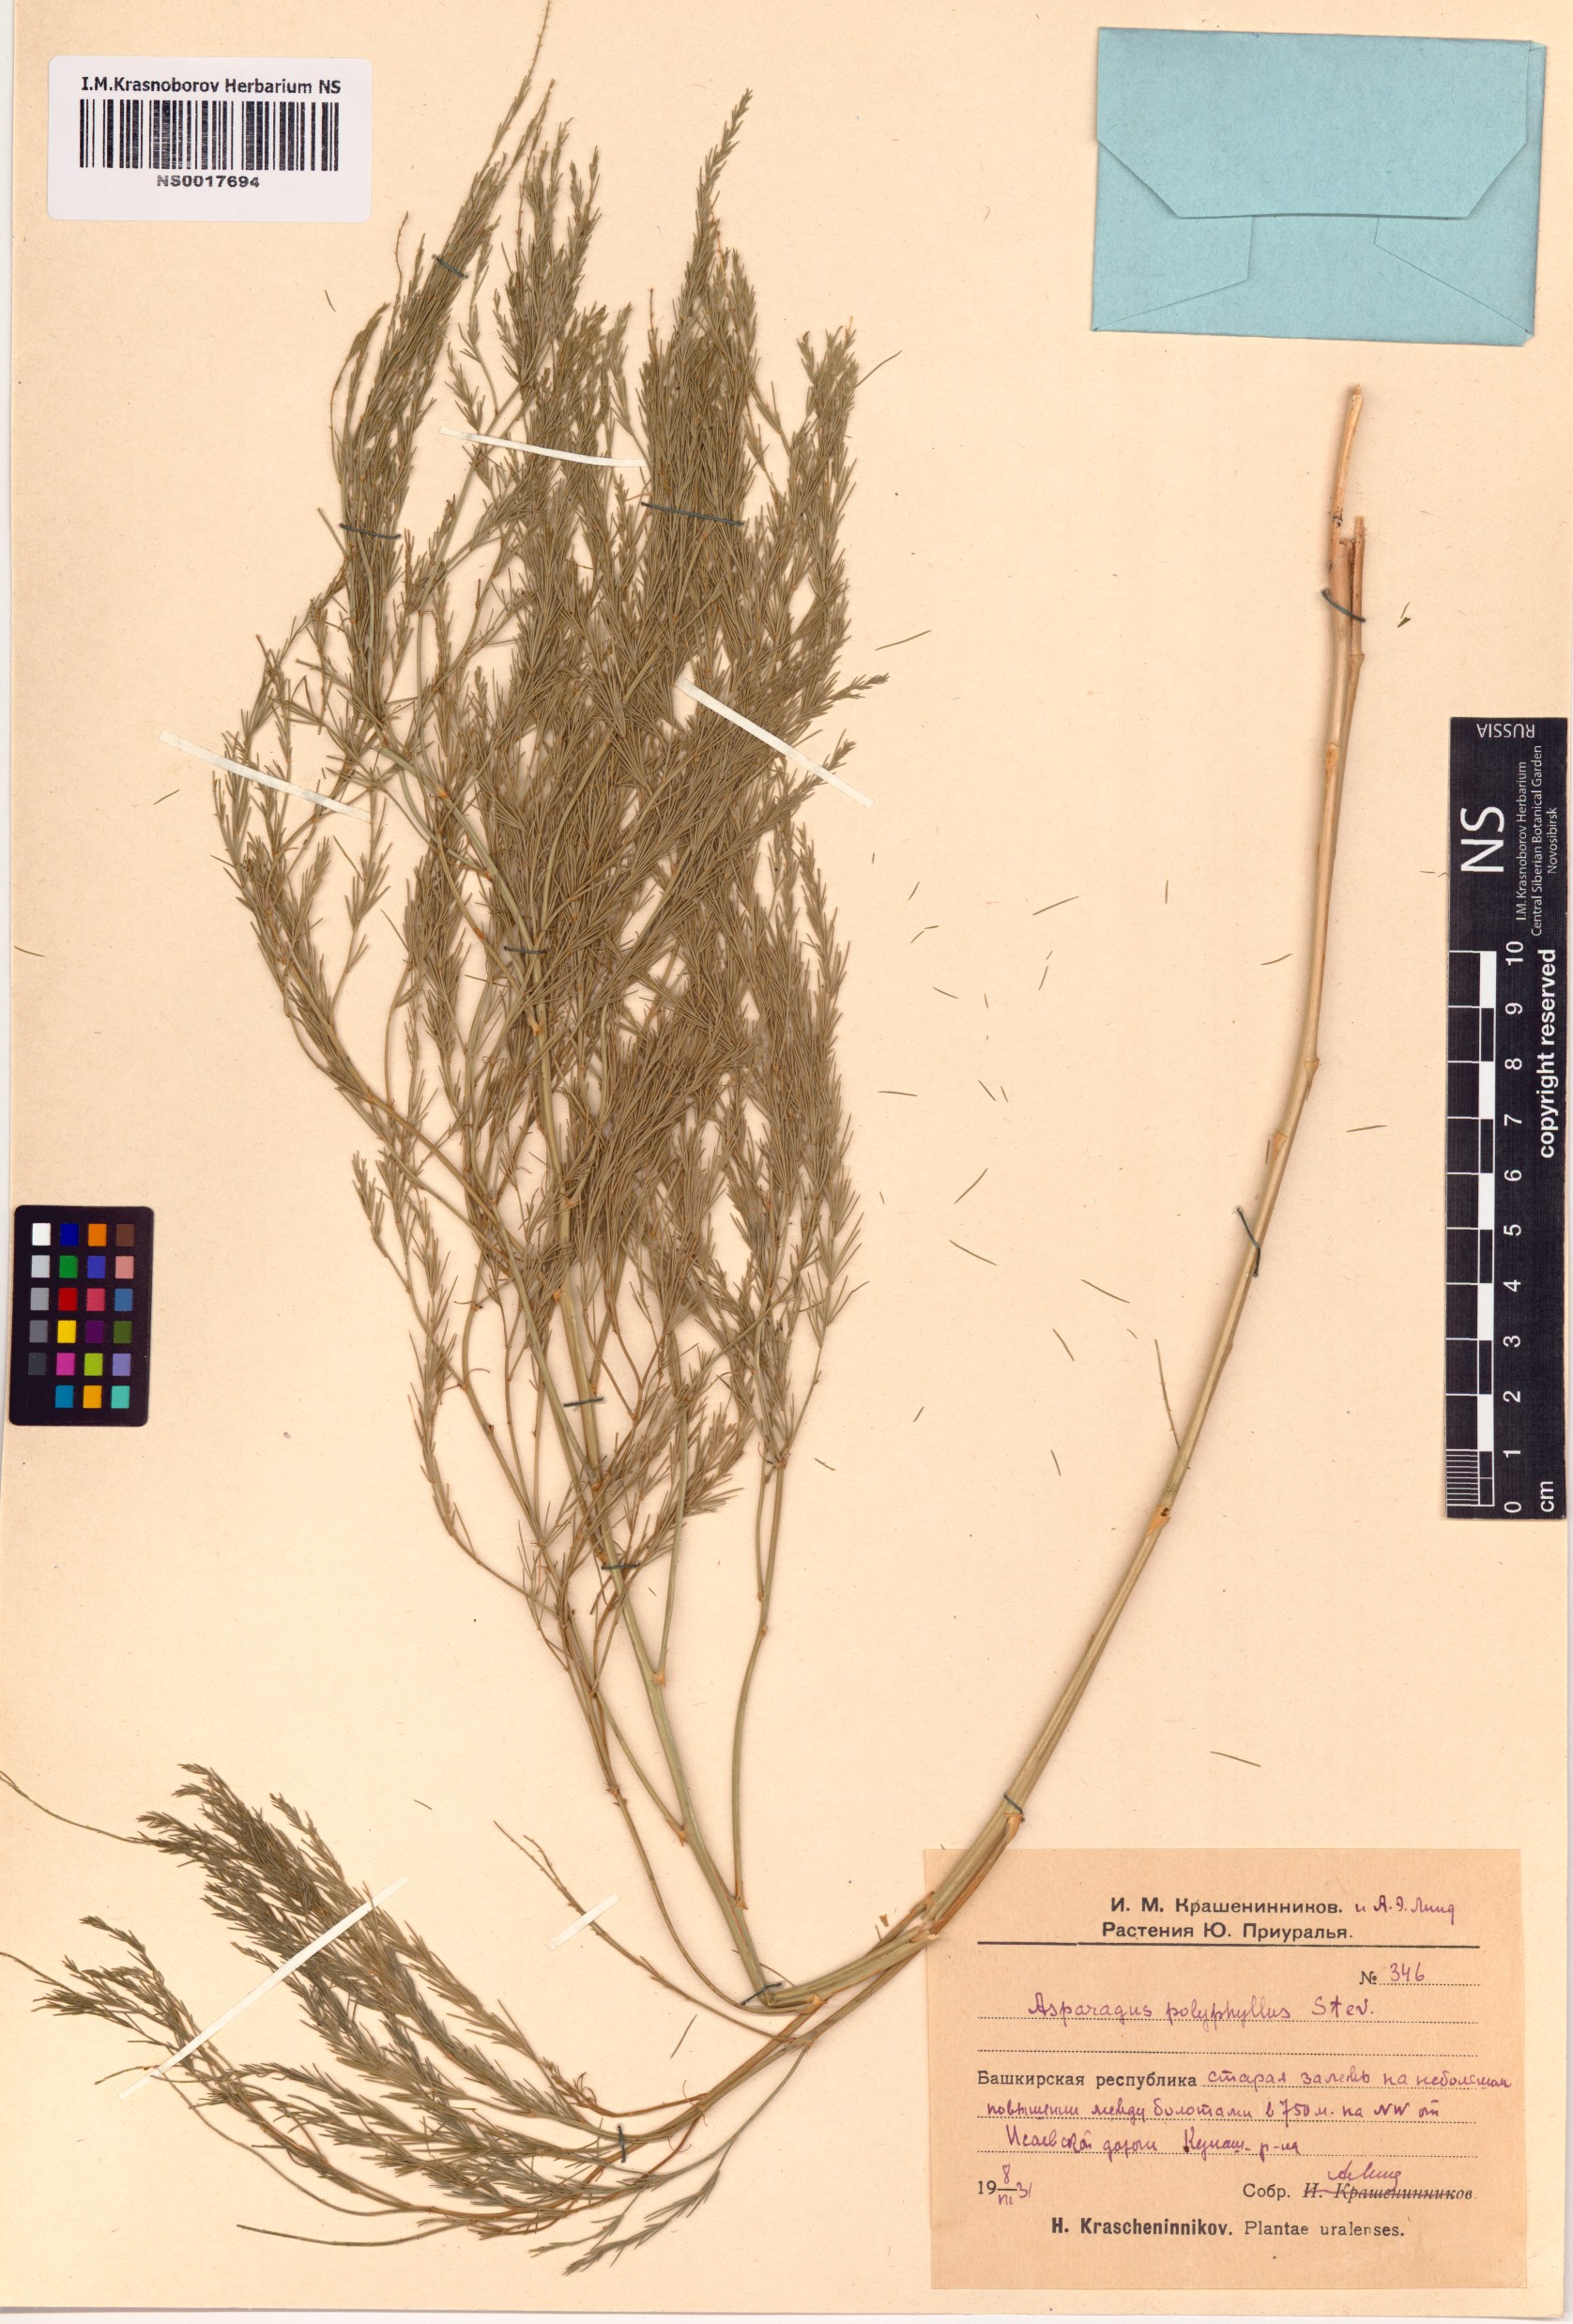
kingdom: Plantae
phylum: Tracheophyta
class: Liliopsida
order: Asparagales
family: Asparagaceae
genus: Asparagus
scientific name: Asparagus officinalis
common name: Garden asparagus
